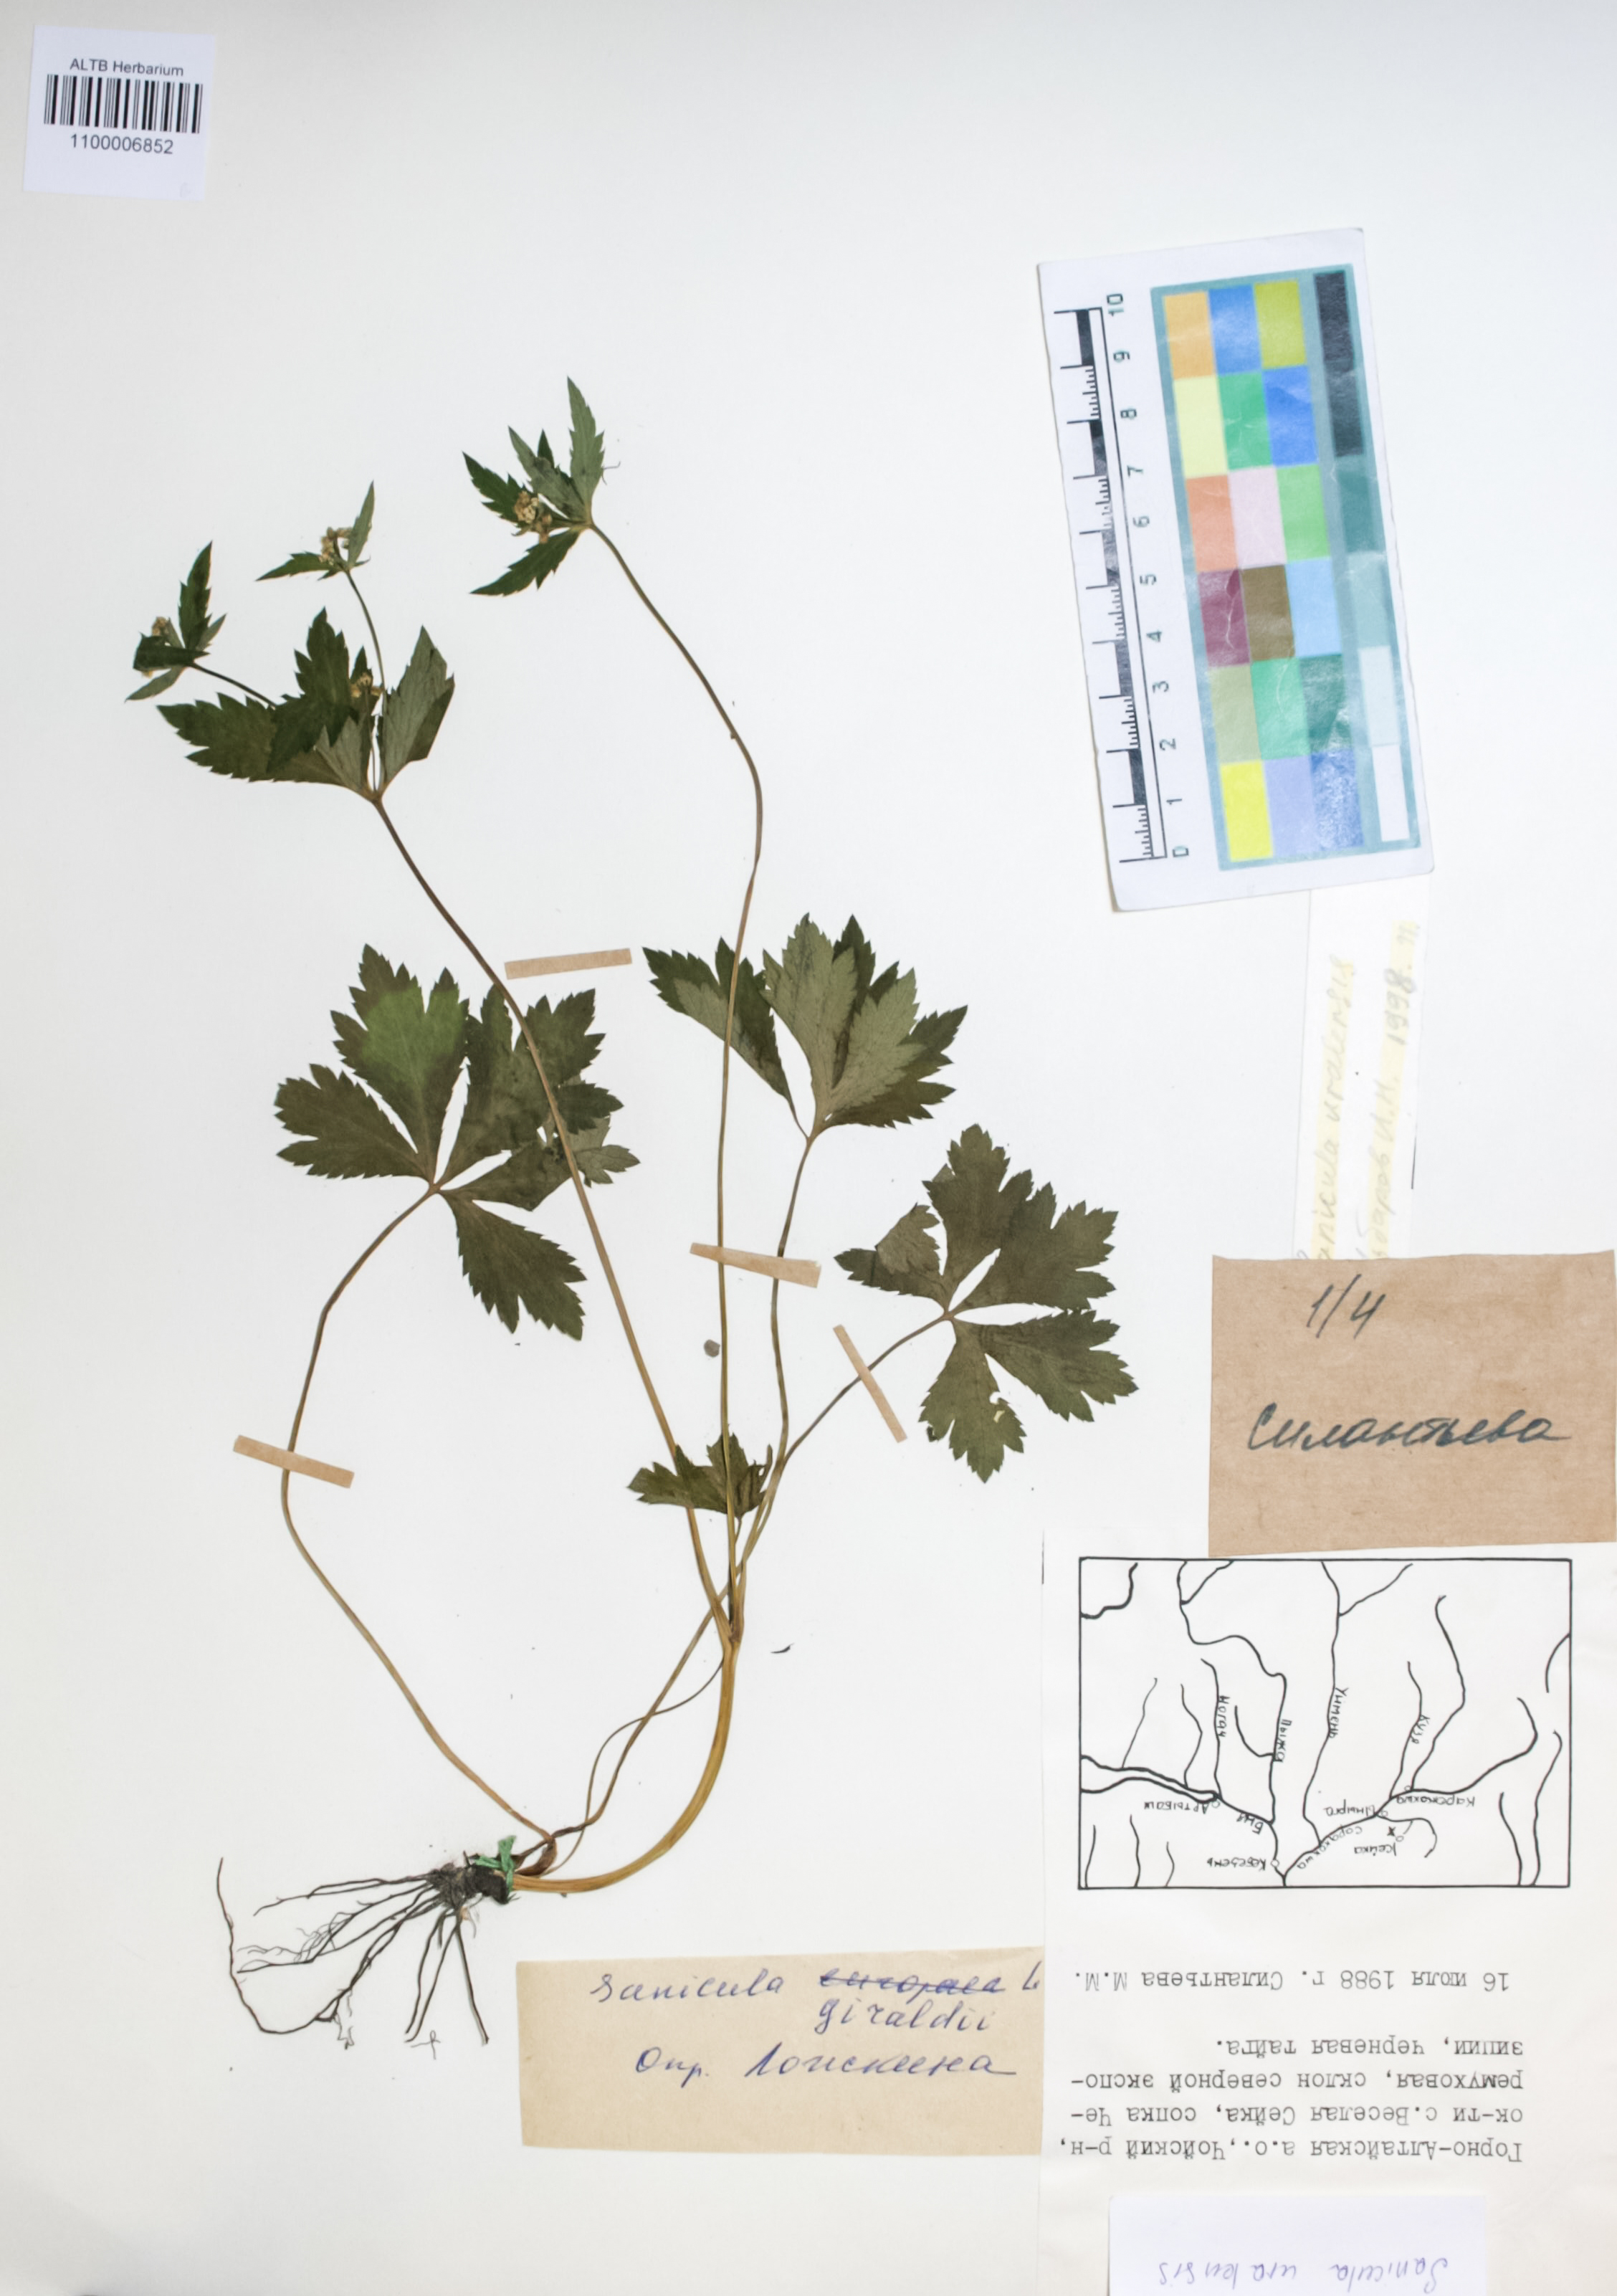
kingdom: Plantae
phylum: Tracheophyta
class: Magnoliopsida
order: Apiales
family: Apiaceae
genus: Sanicula
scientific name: Sanicula giraldii
